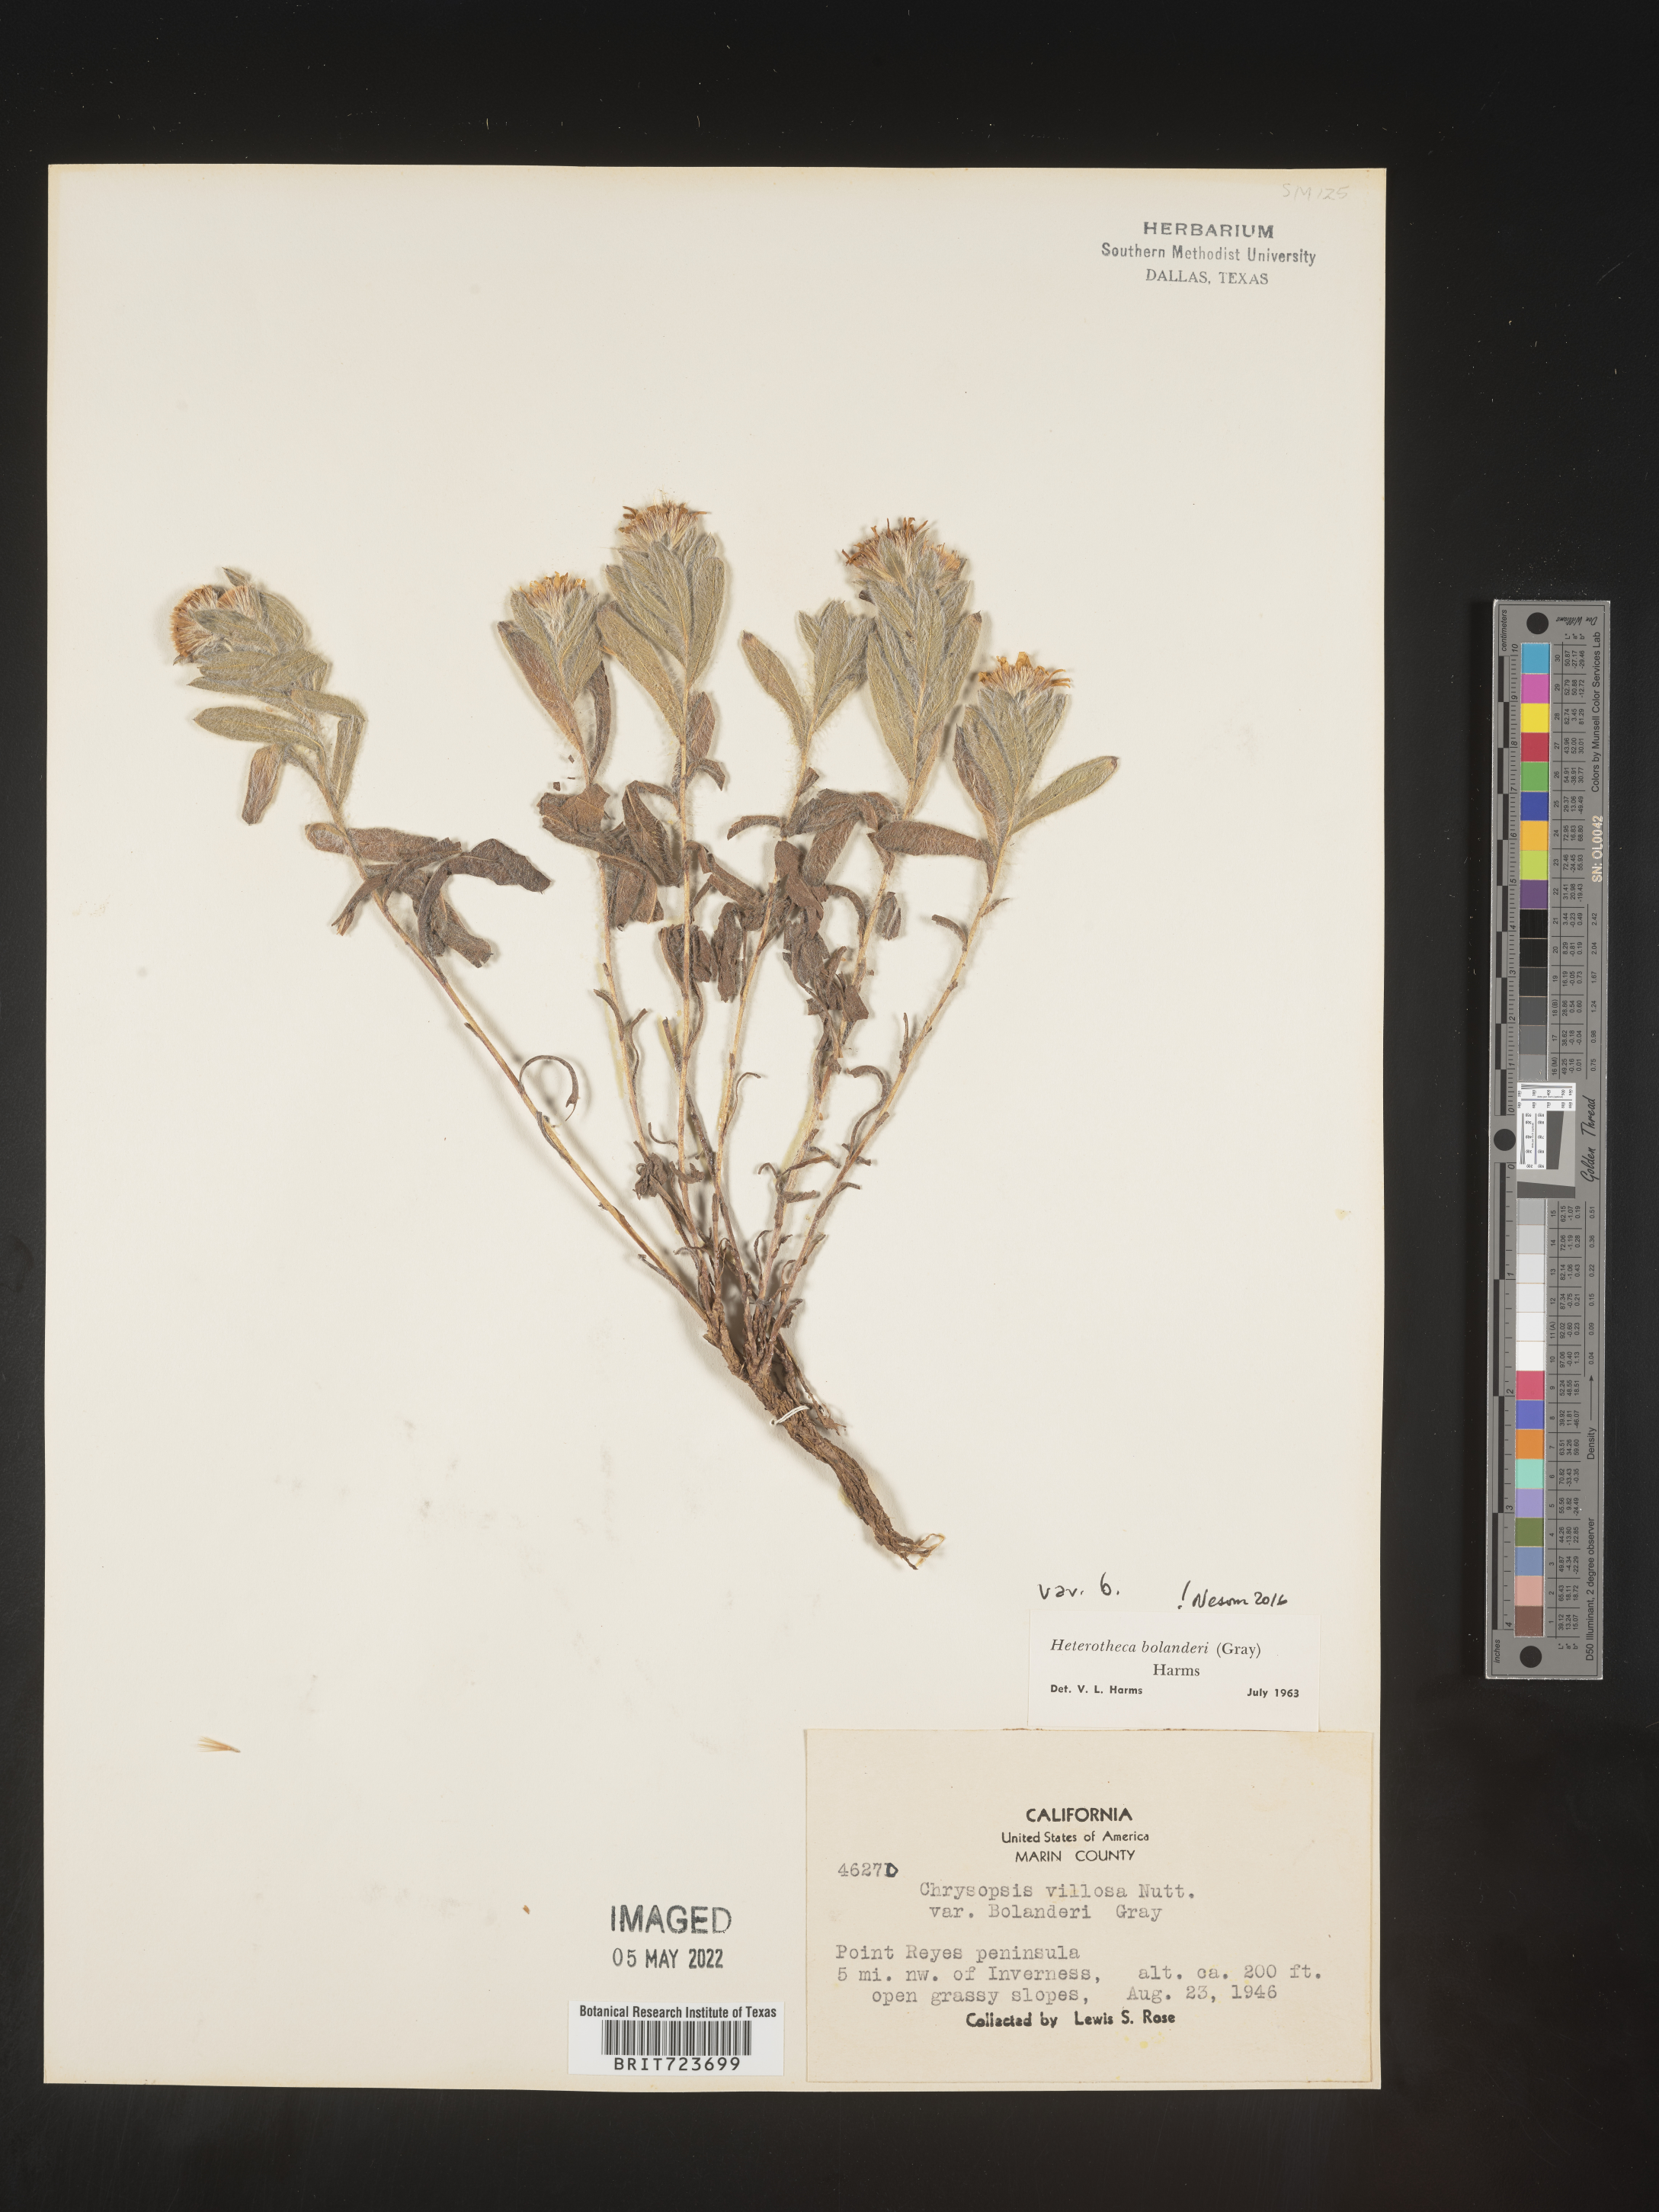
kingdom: Plantae
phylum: Tracheophyta
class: Magnoliopsida
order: Asterales
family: Asteraceae
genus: Heterotheca
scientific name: Heterotheca bolanderi
